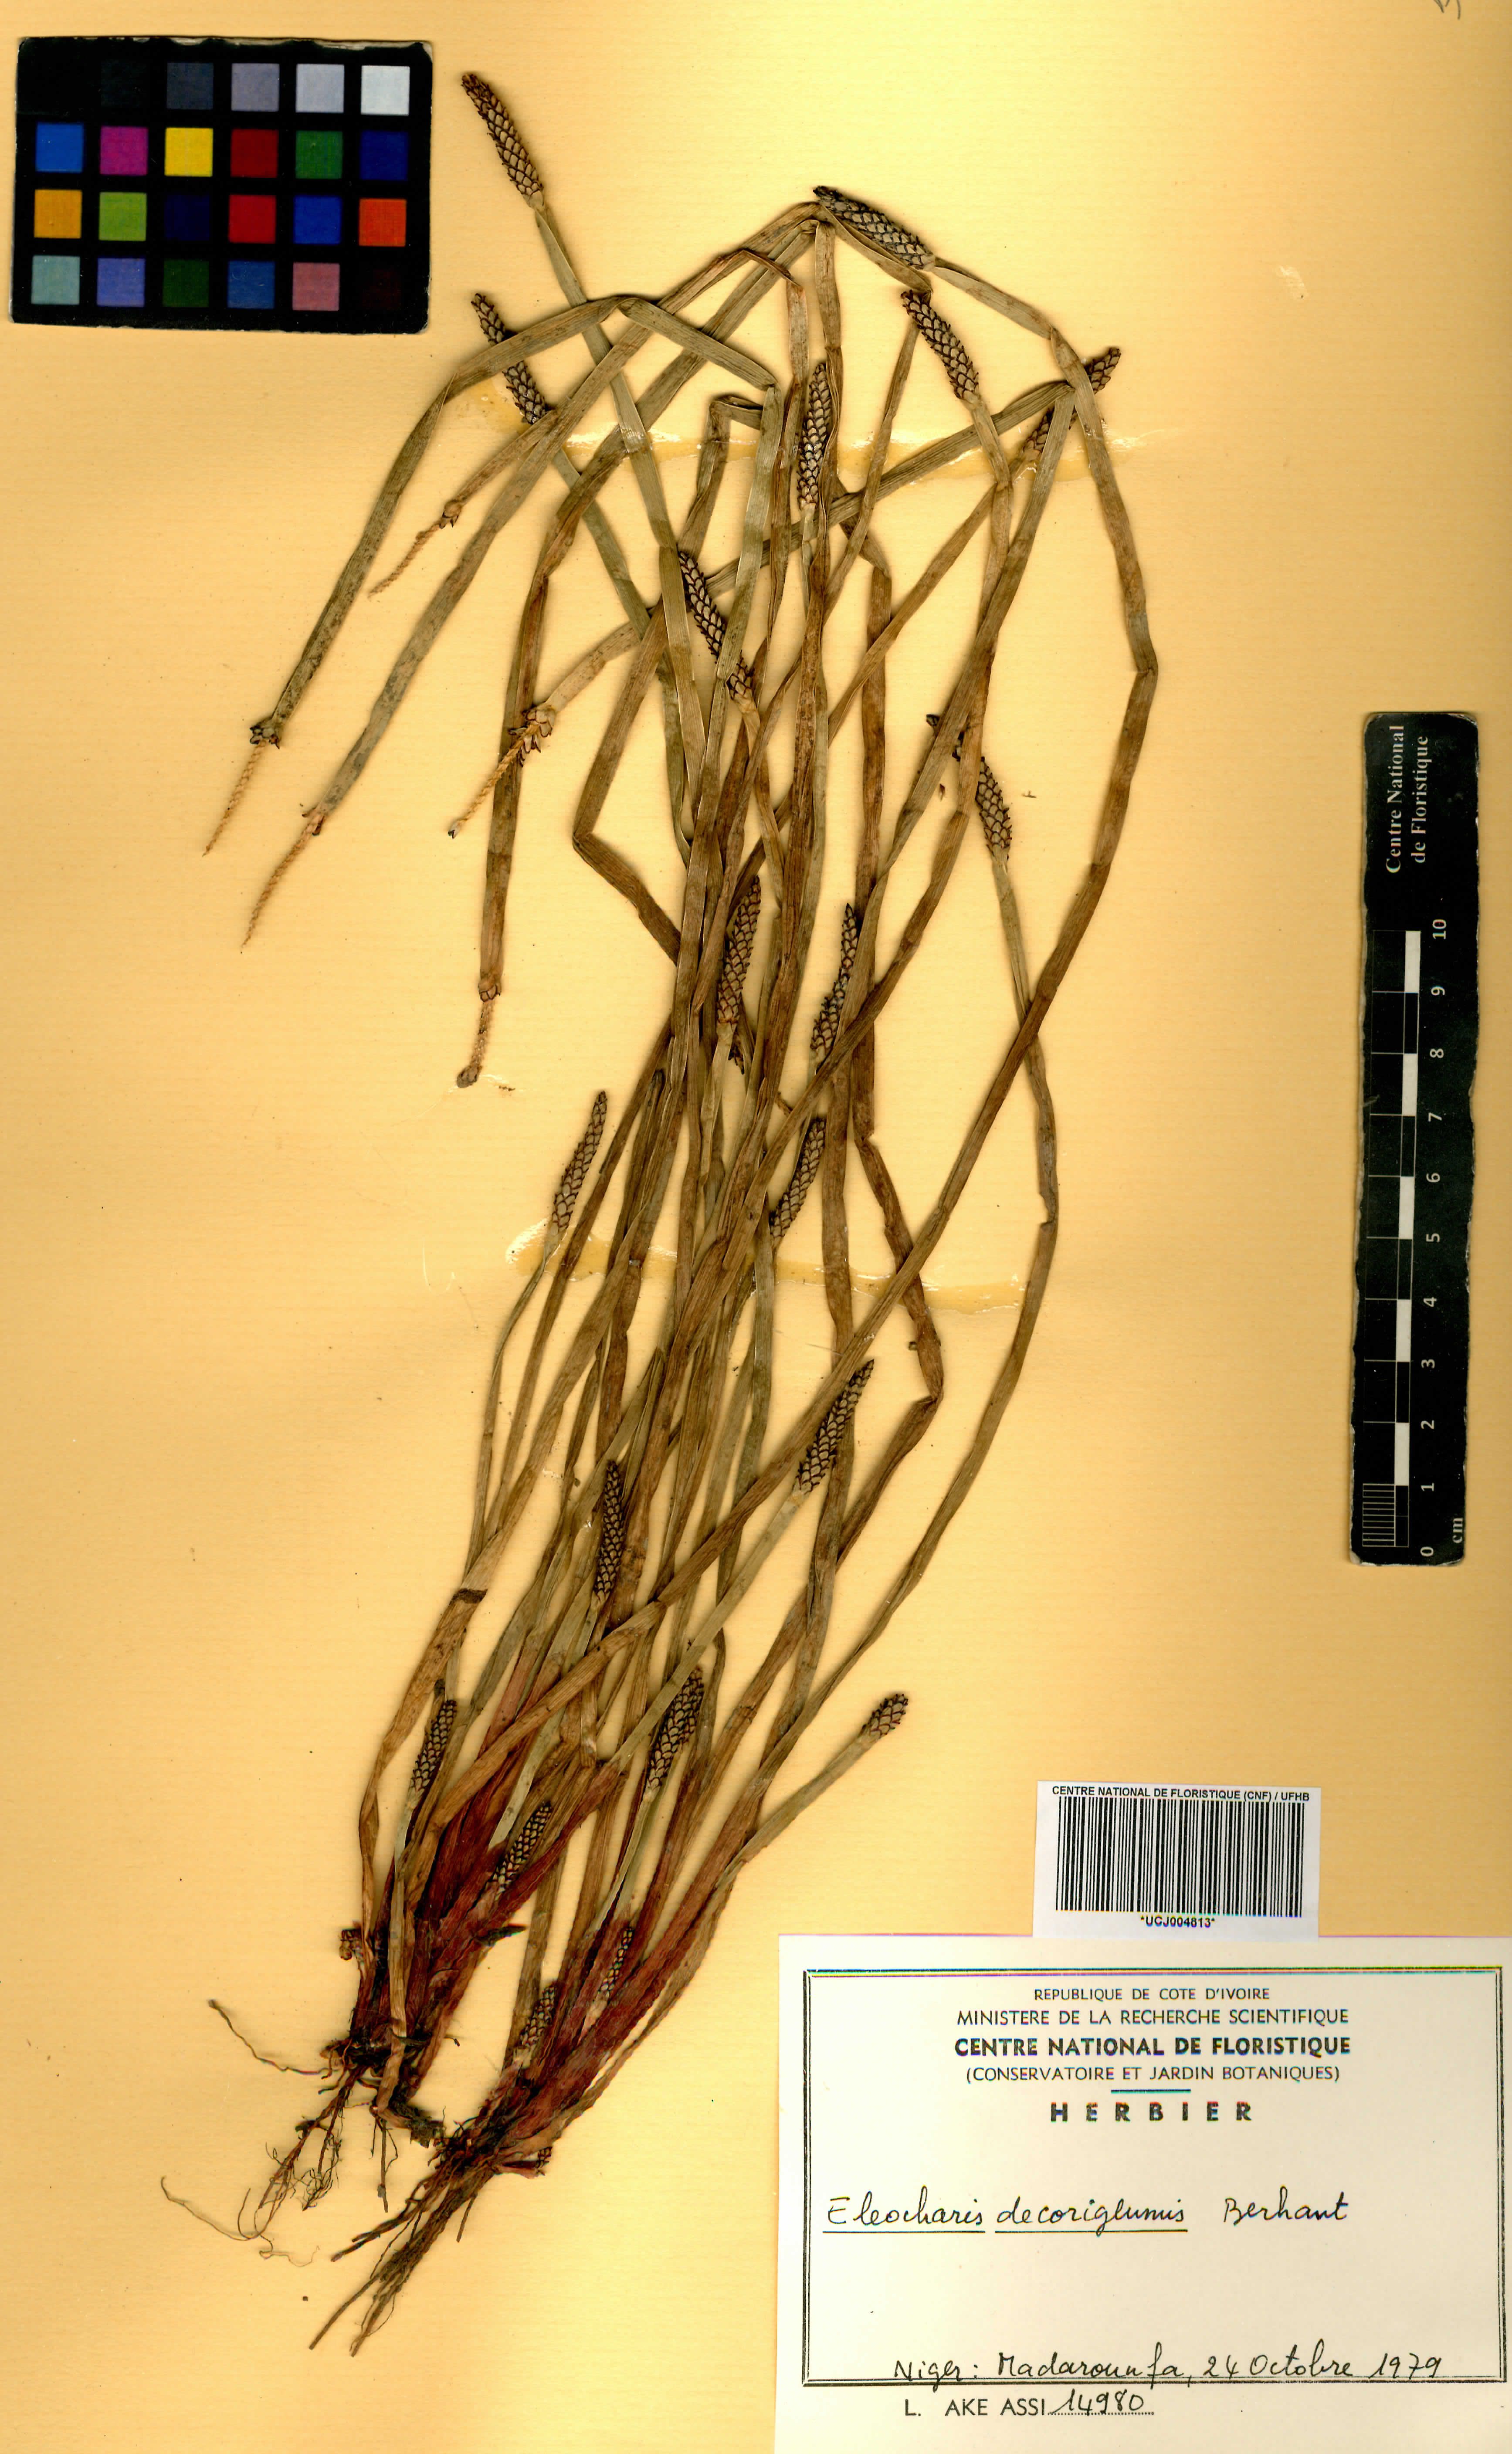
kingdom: Plantae
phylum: Tracheophyta
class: Liliopsida
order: Poales
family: Cyperaceae
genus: Eleocharis
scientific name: Eleocharis decoriglumis
